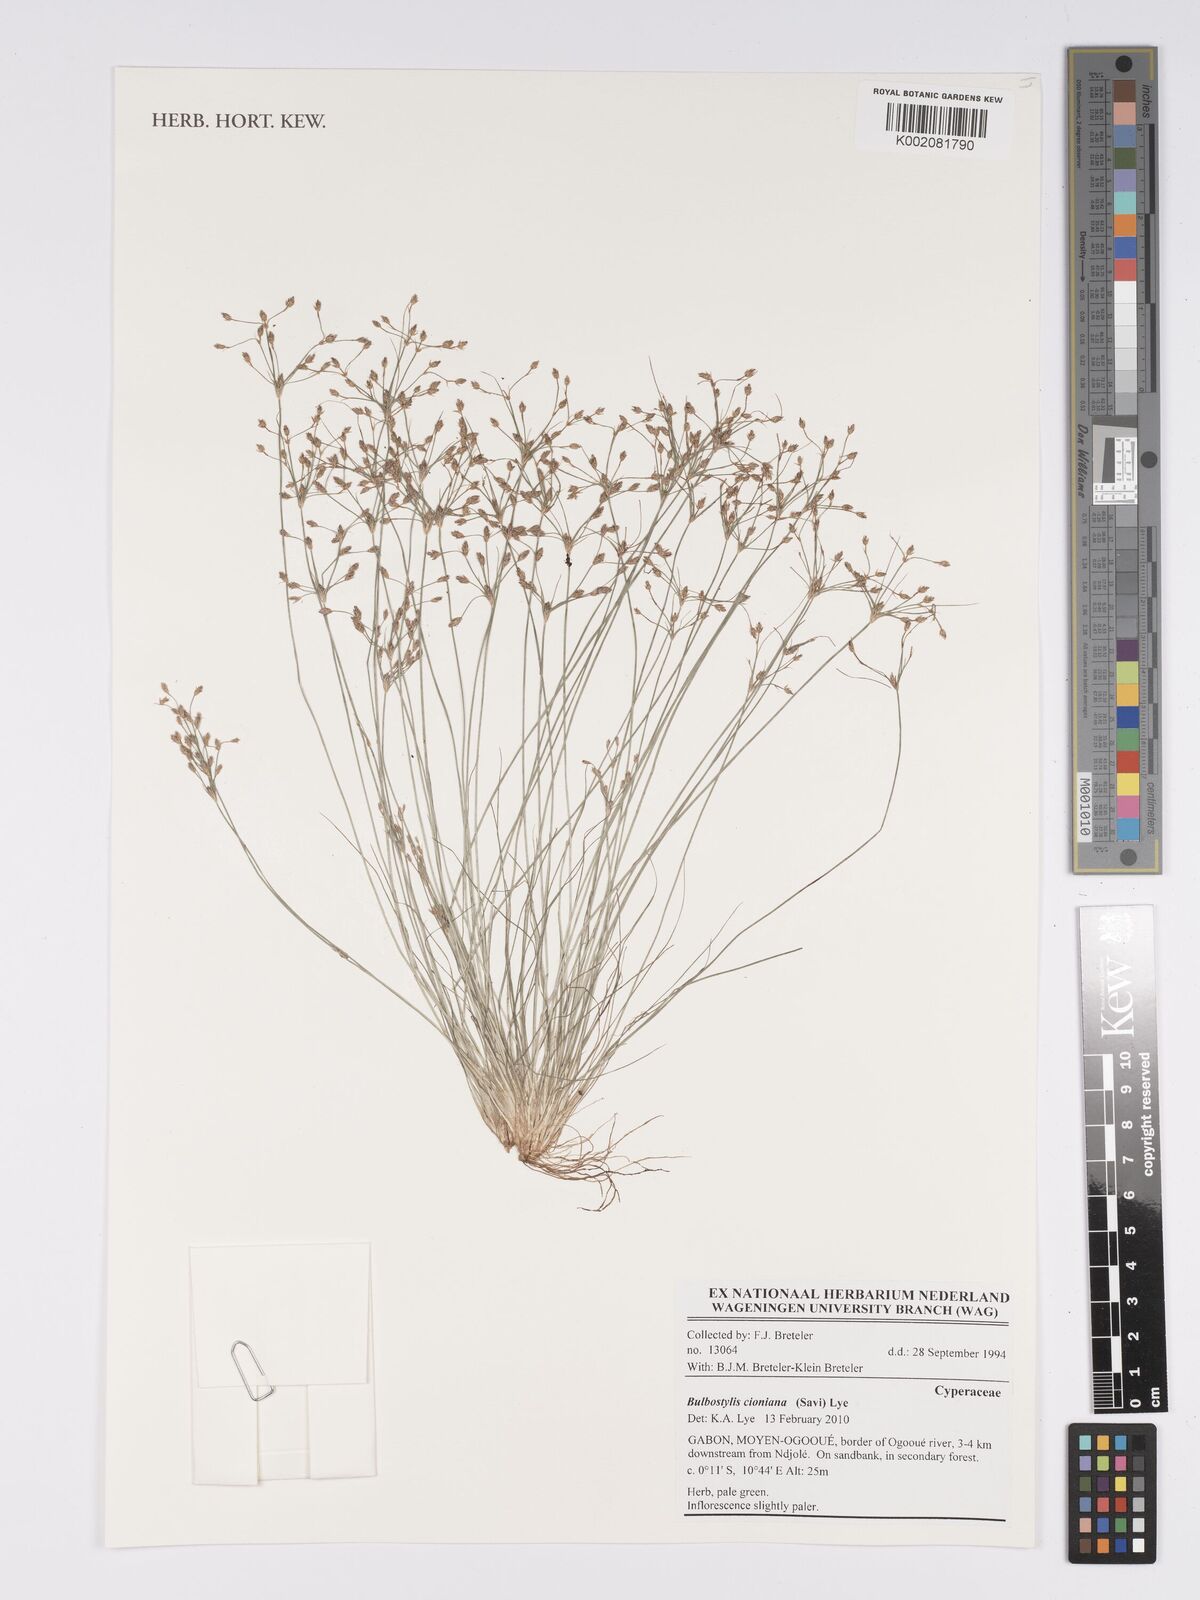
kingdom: Plantae
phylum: Tracheophyta
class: Liliopsida
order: Poales
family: Cyperaceae
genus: Bulbostylis
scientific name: Bulbostylis cioniana
